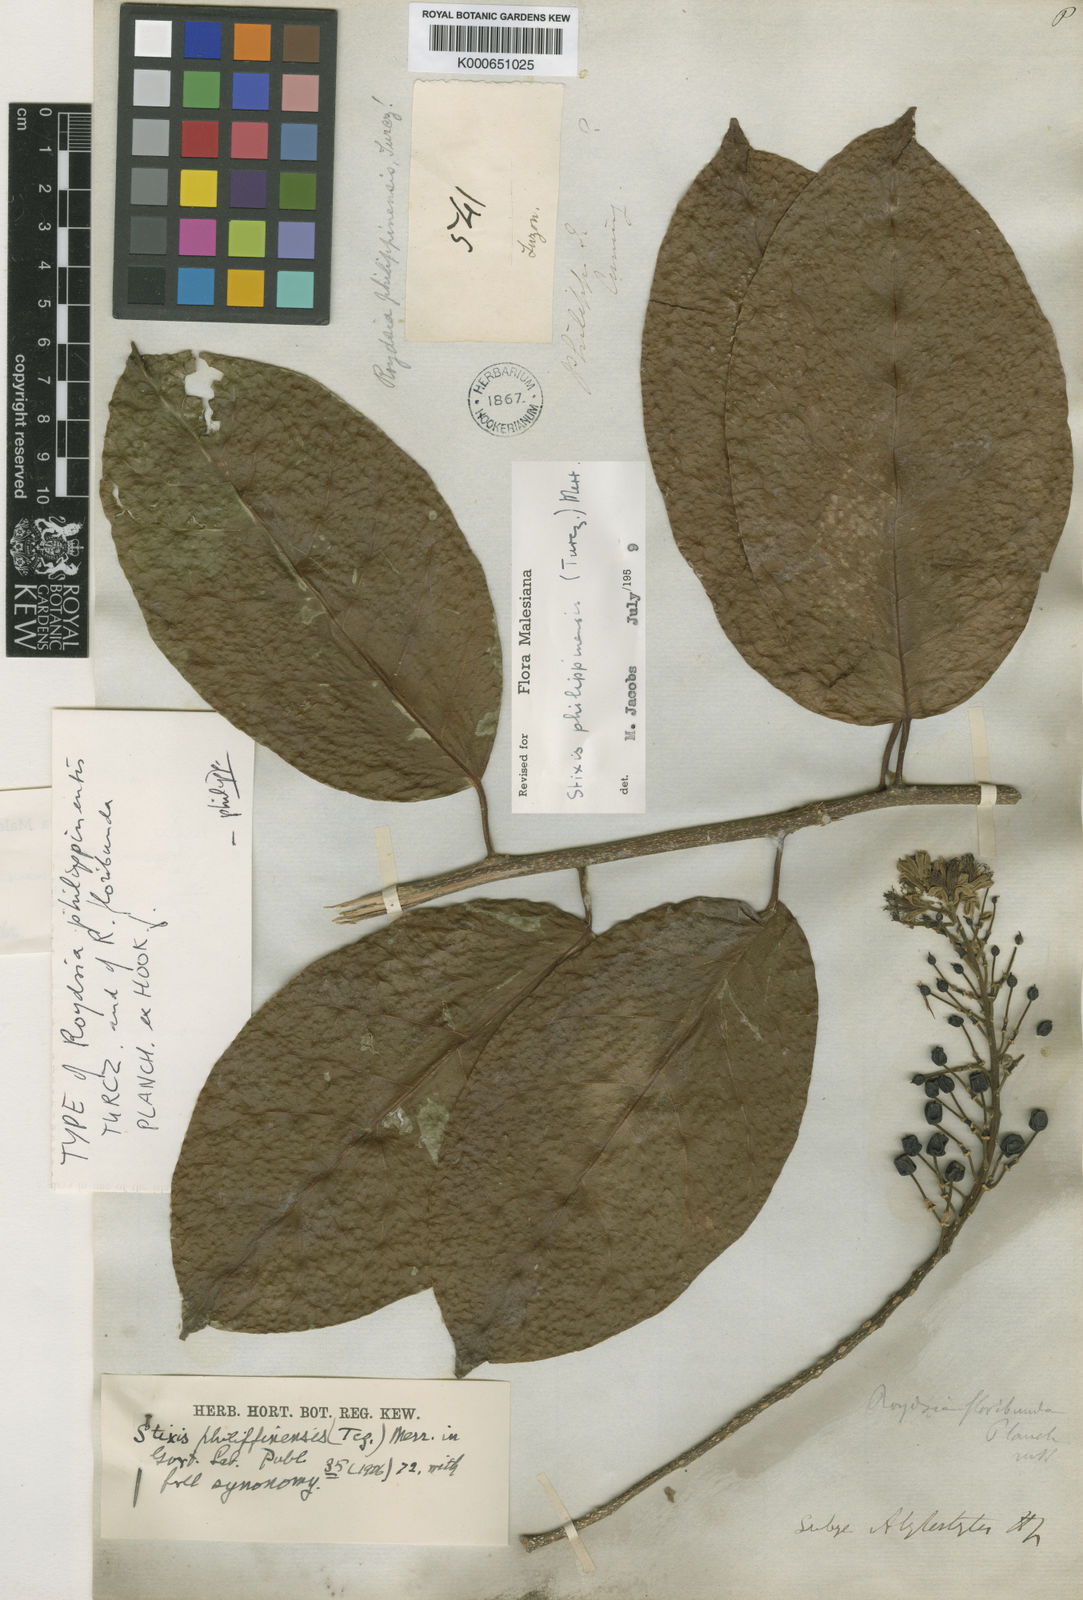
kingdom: Plantae
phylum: Tracheophyta
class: Magnoliopsida
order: Brassicales
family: Stixaceae
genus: Stixis
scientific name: Stixis philippinensis
